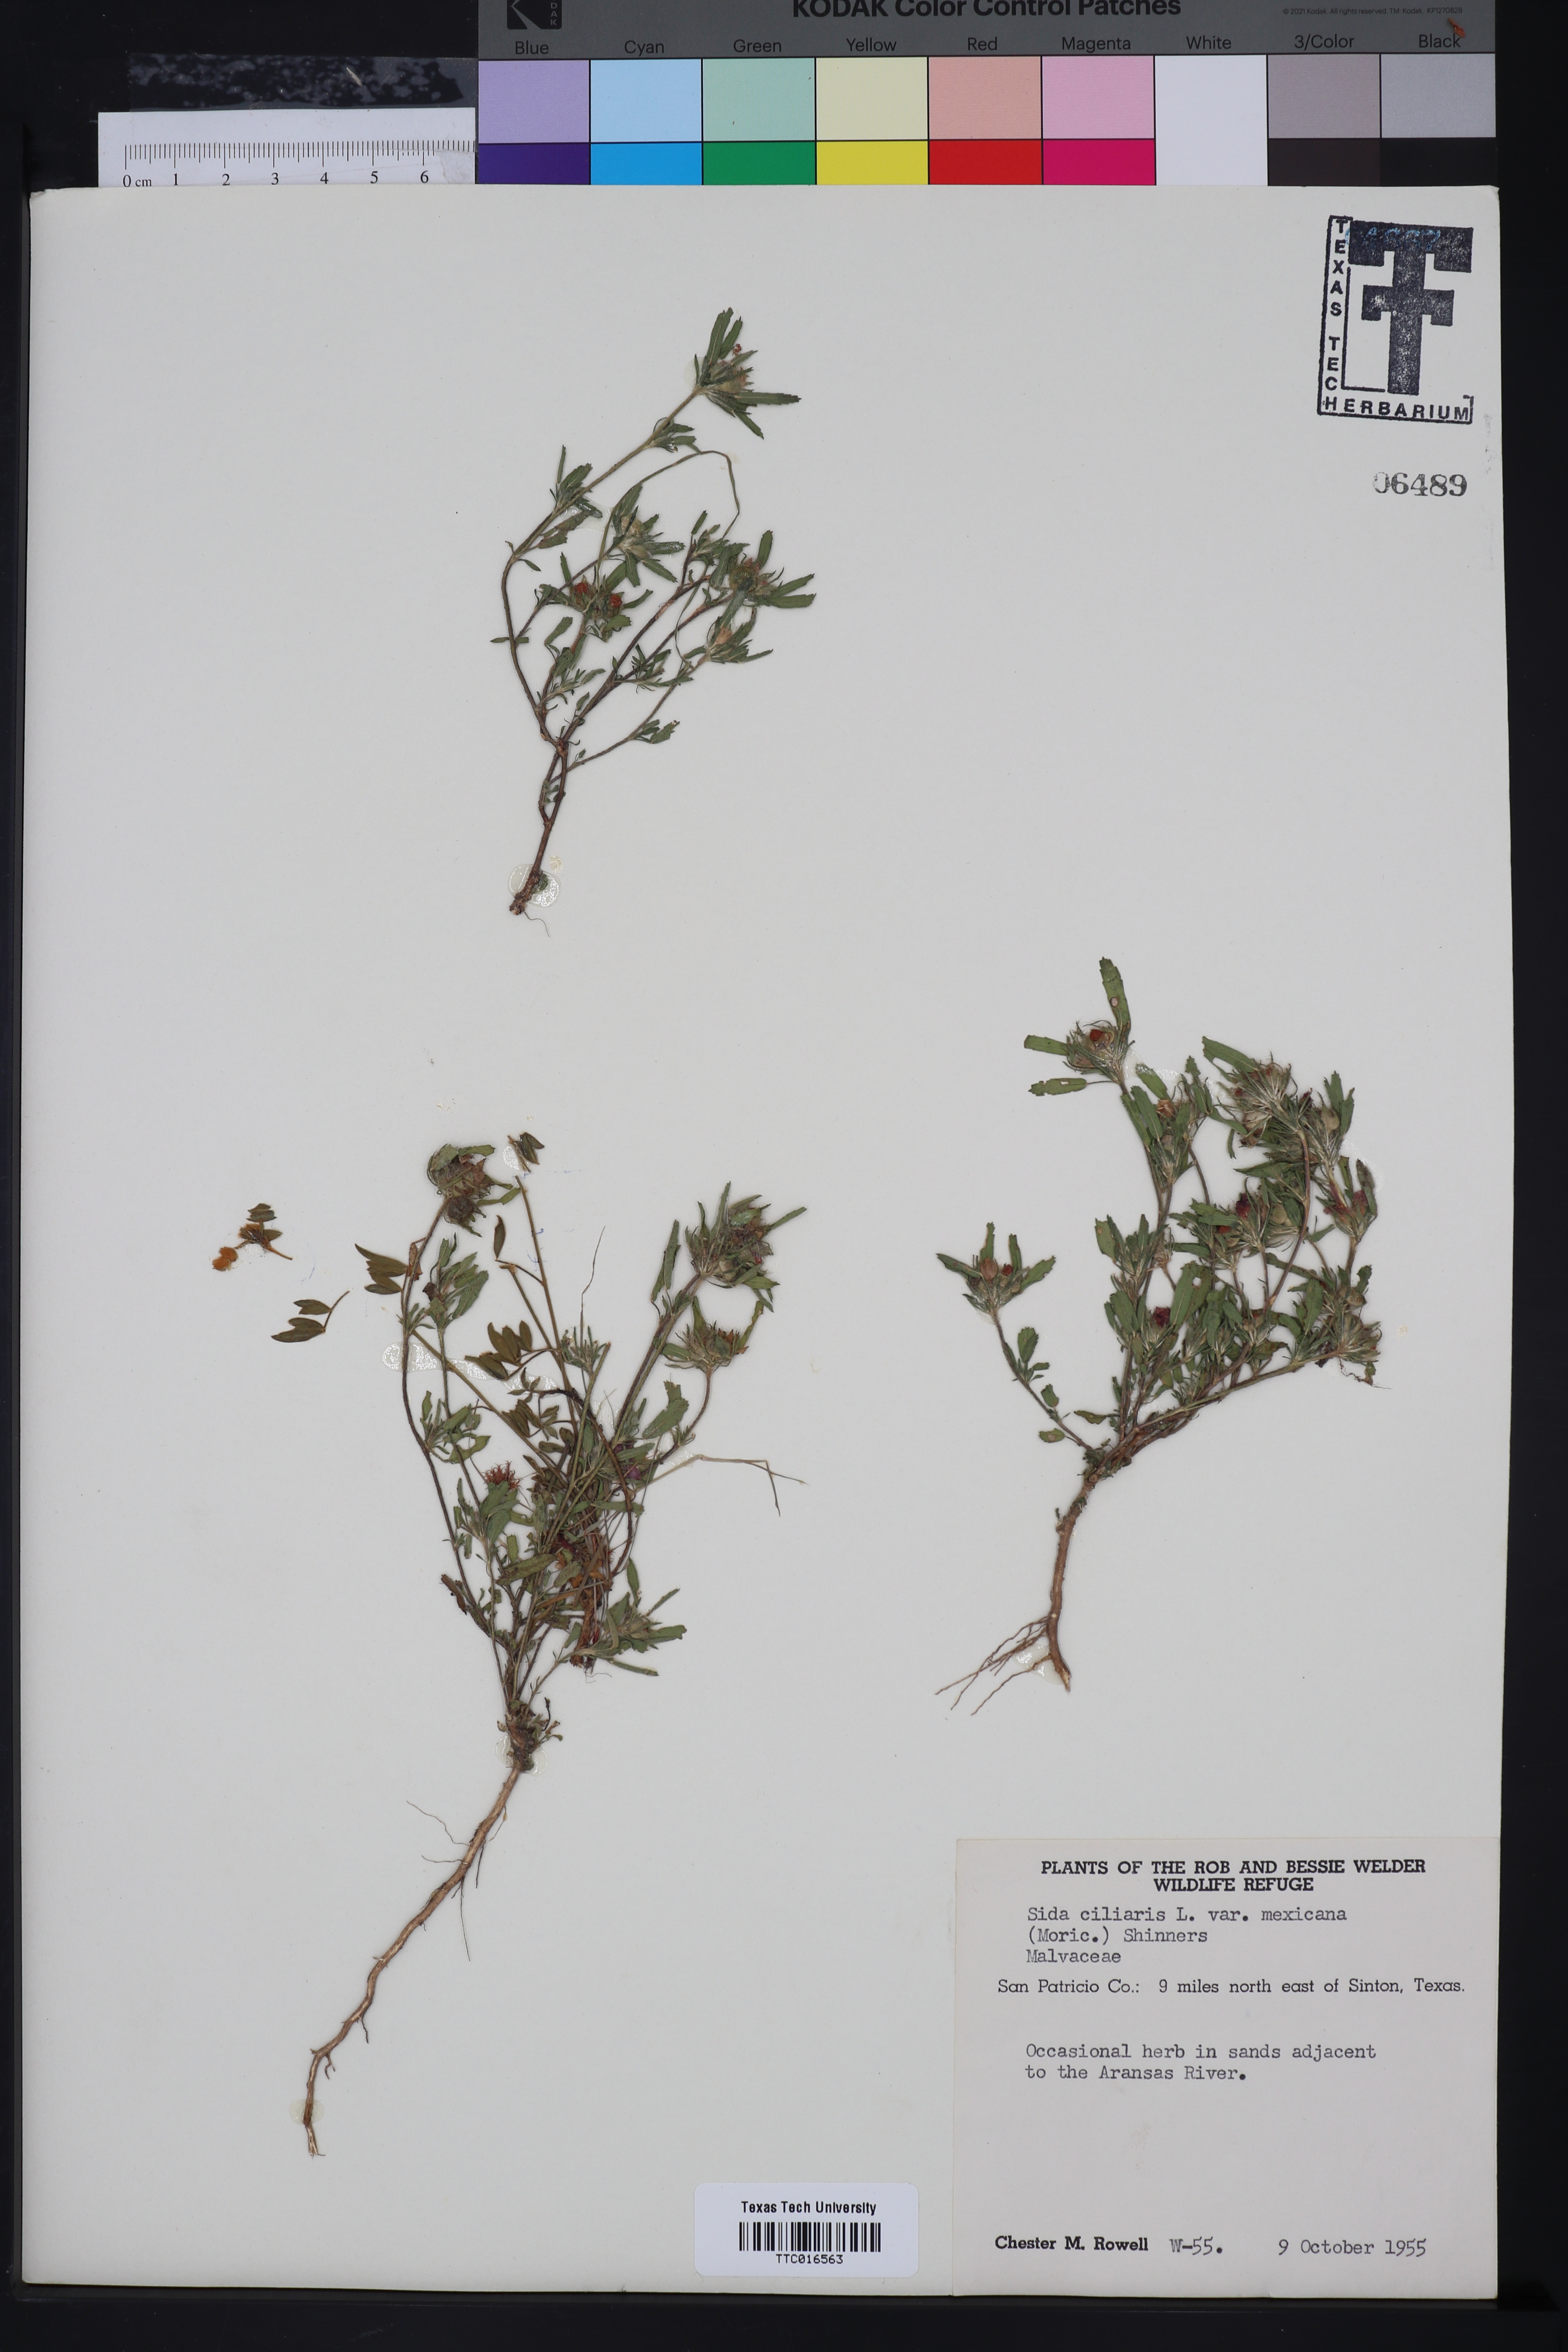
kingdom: Plantae
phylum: Tracheophyta
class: Magnoliopsida
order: Malvales
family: Malvaceae
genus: Sida
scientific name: Sida ciliaris
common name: Bracted fanpetals
